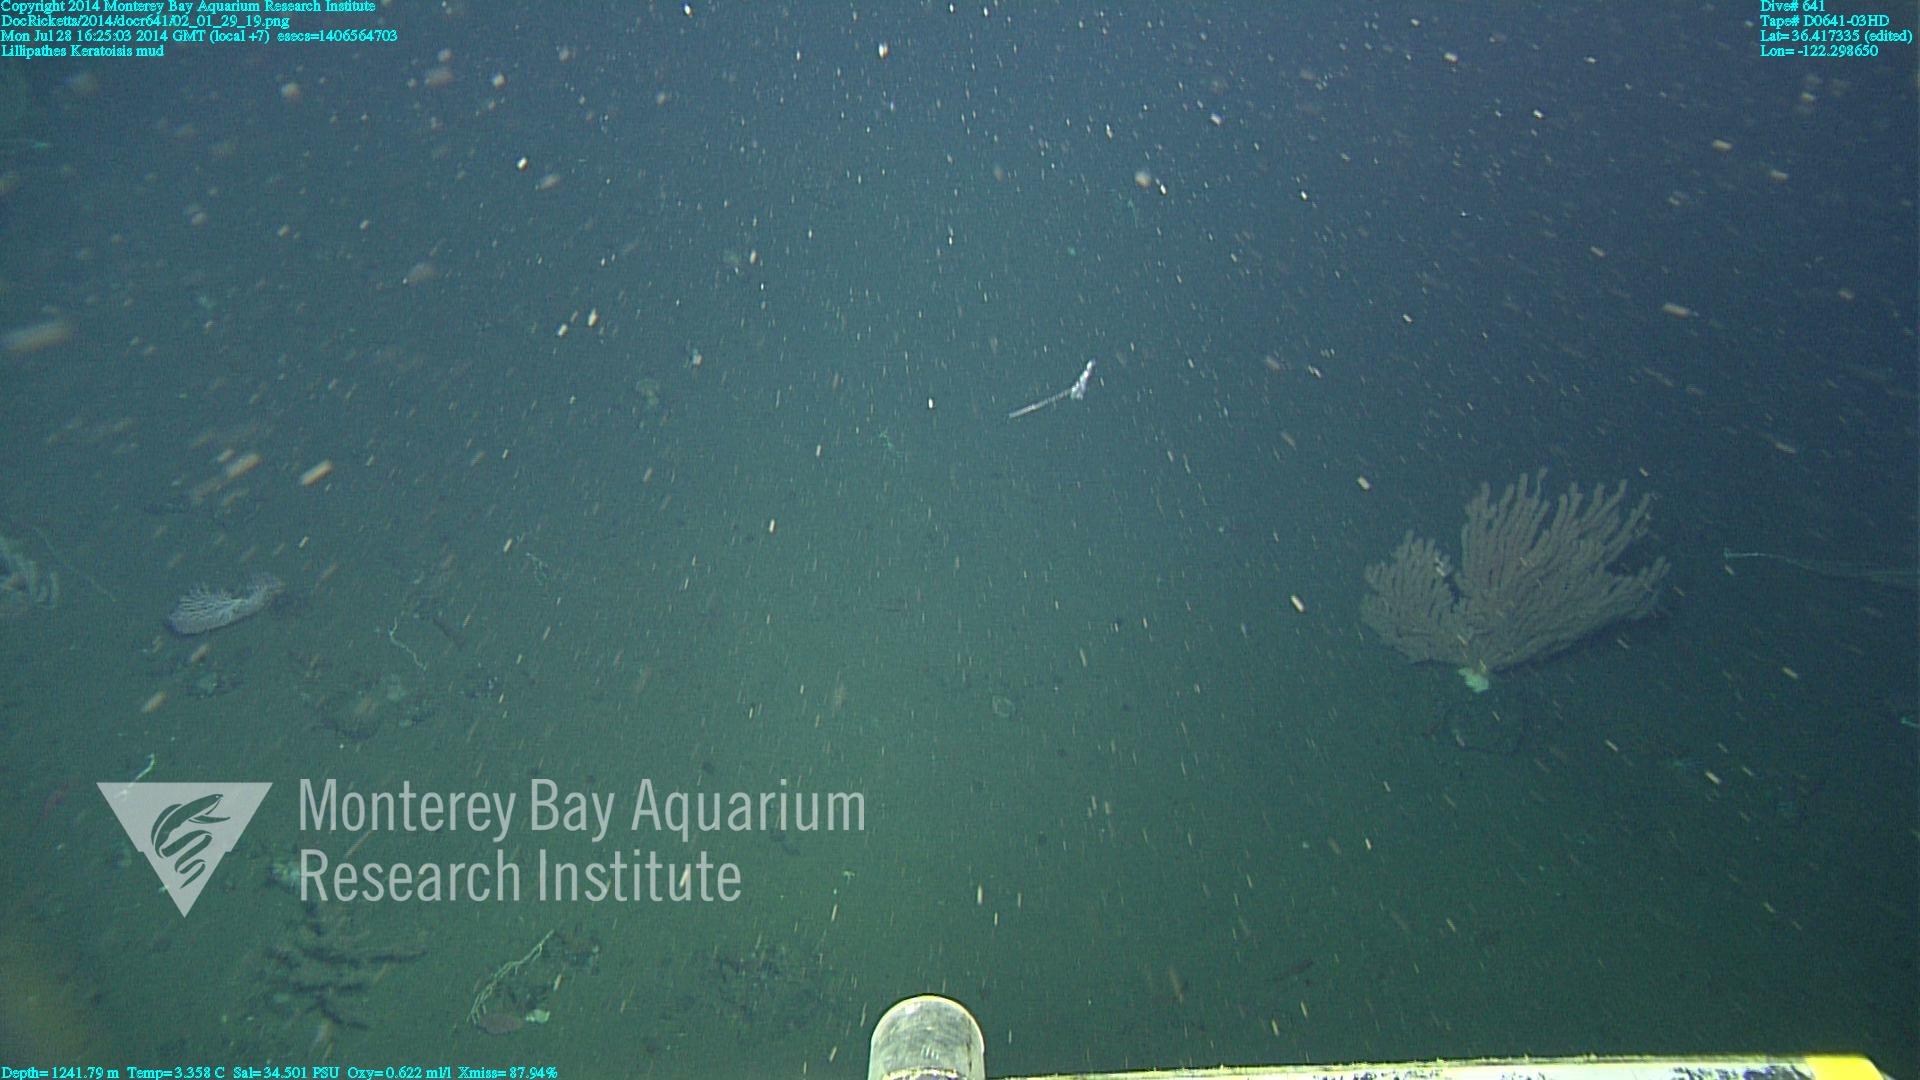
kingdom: Animalia
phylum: Cnidaria
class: Anthozoa
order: Scleralcyonacea
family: Keratoisididae
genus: Keratoisis
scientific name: Keratoisis
